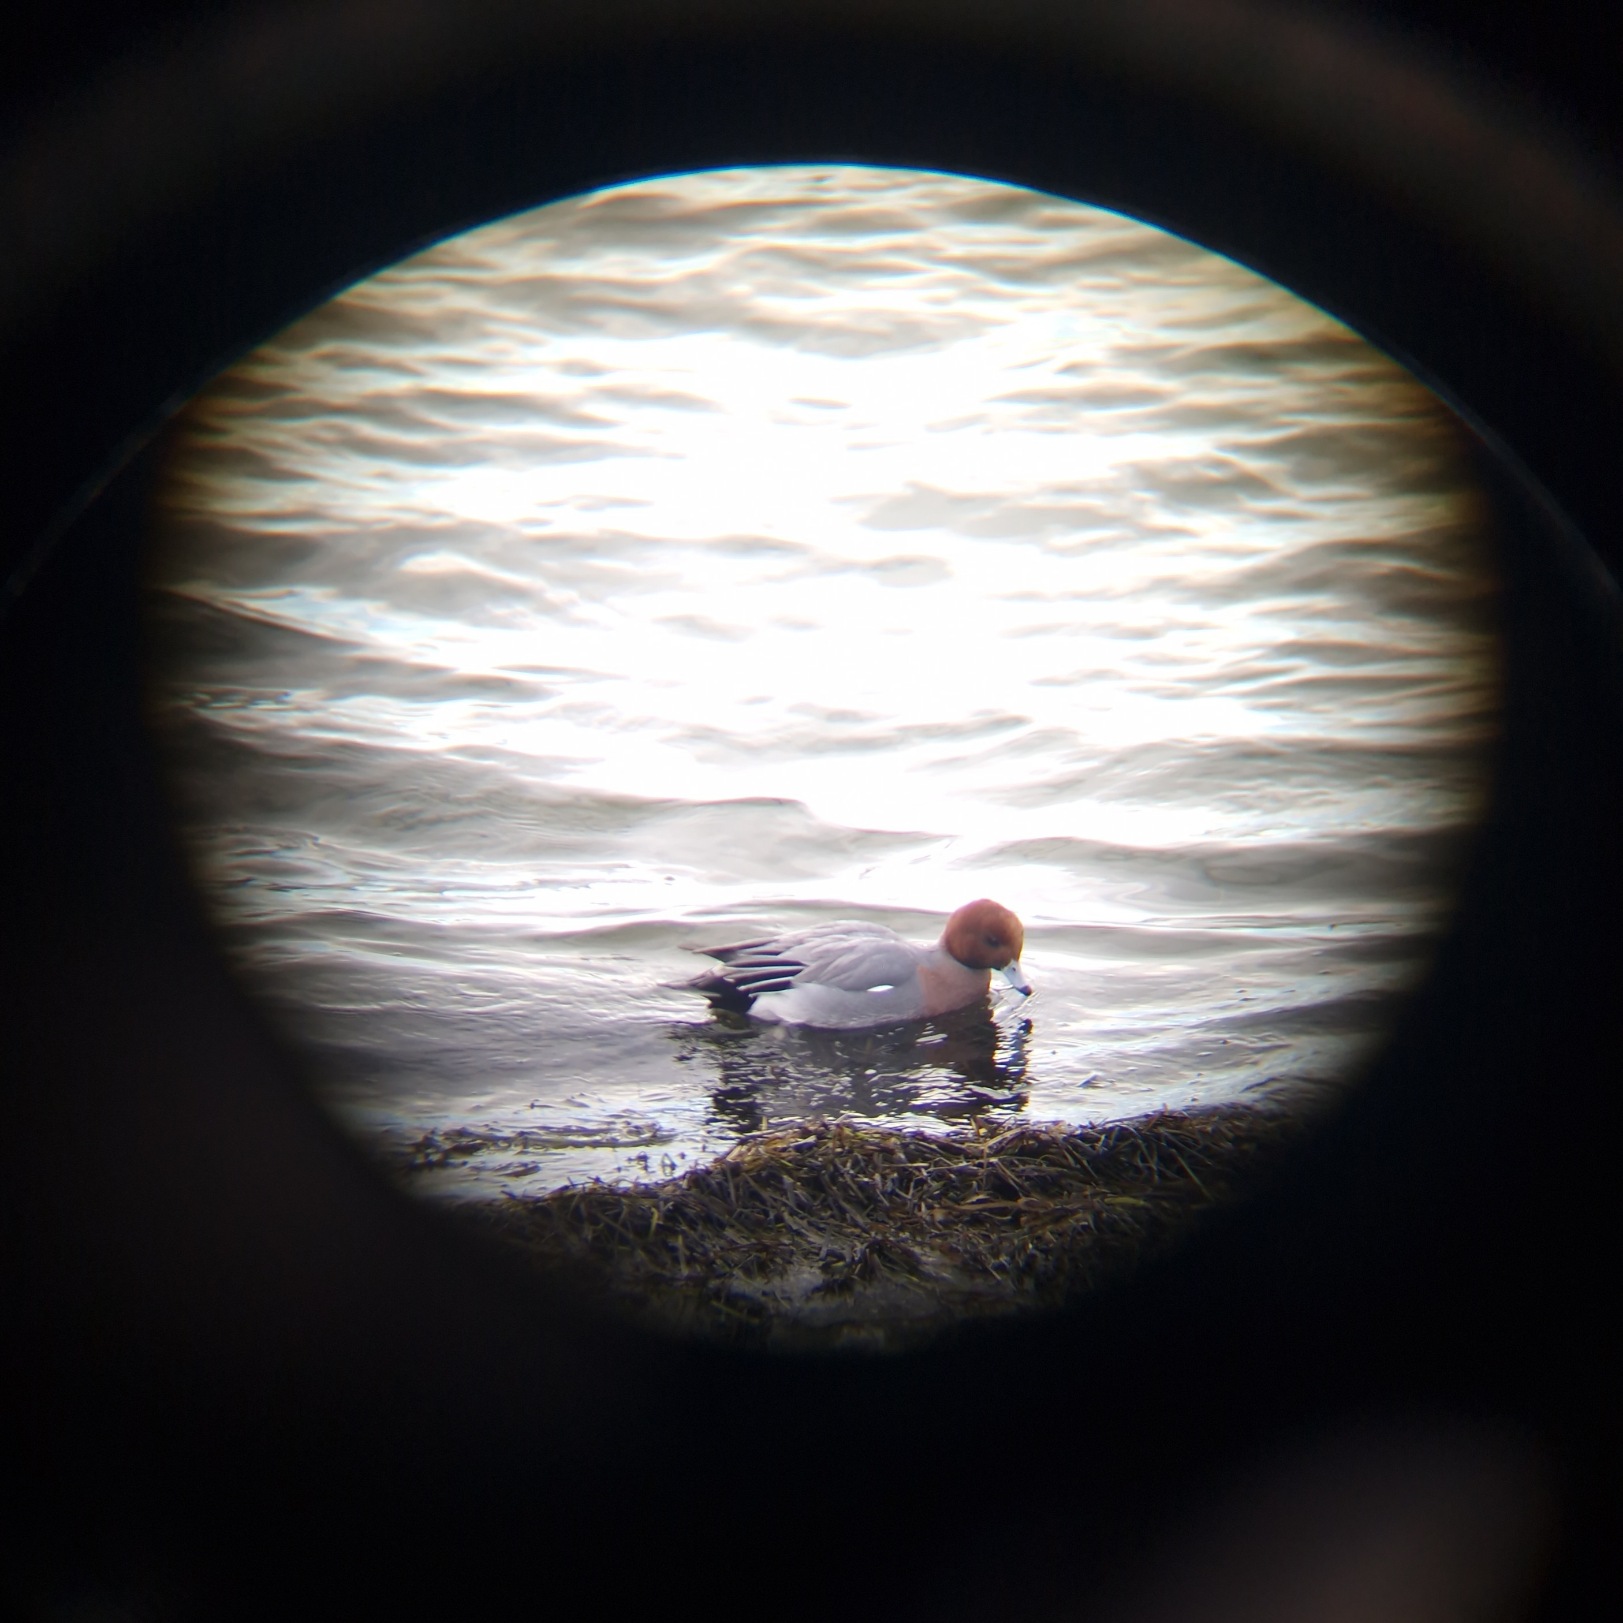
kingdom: Animalia
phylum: Chordata
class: Aves
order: Anseriformes
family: Anatidae
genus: Mareca
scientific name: Mareca penelope
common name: Pibeand
